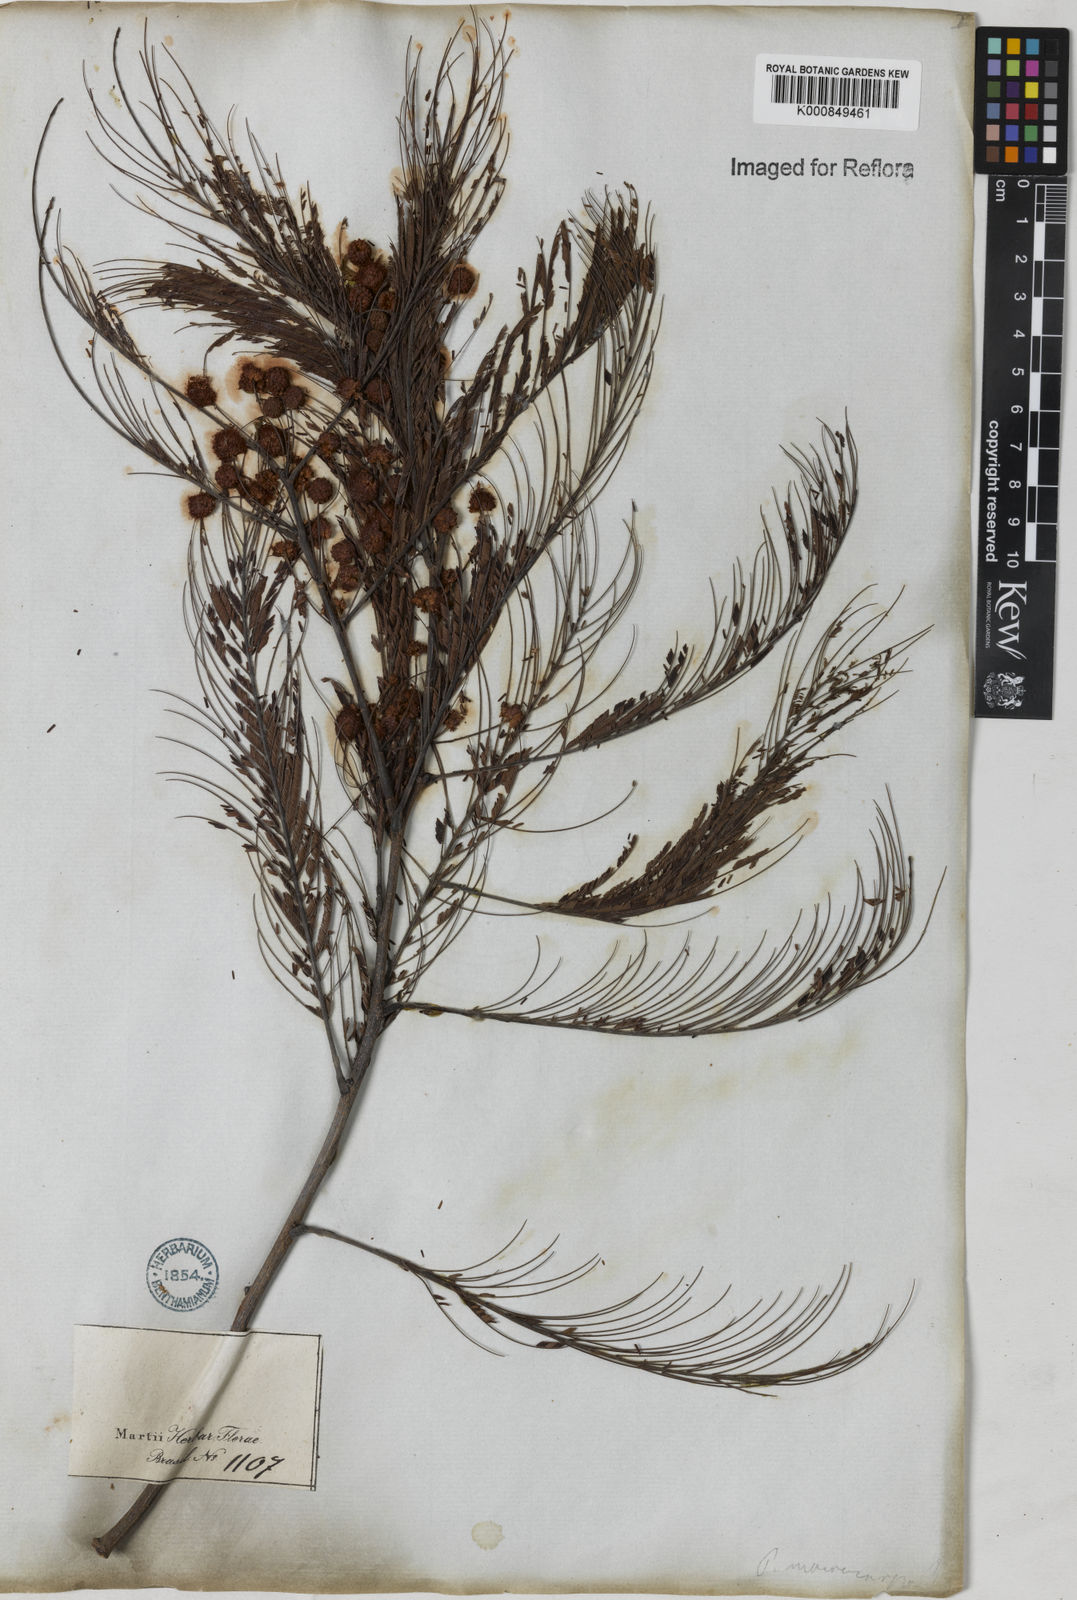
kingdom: Plantae
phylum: Tracheophyta
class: Magnoliopsida
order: Fabales
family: Fabaceae
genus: Anadenanthera
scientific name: Anadenanthera peregrina
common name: Cohoba
